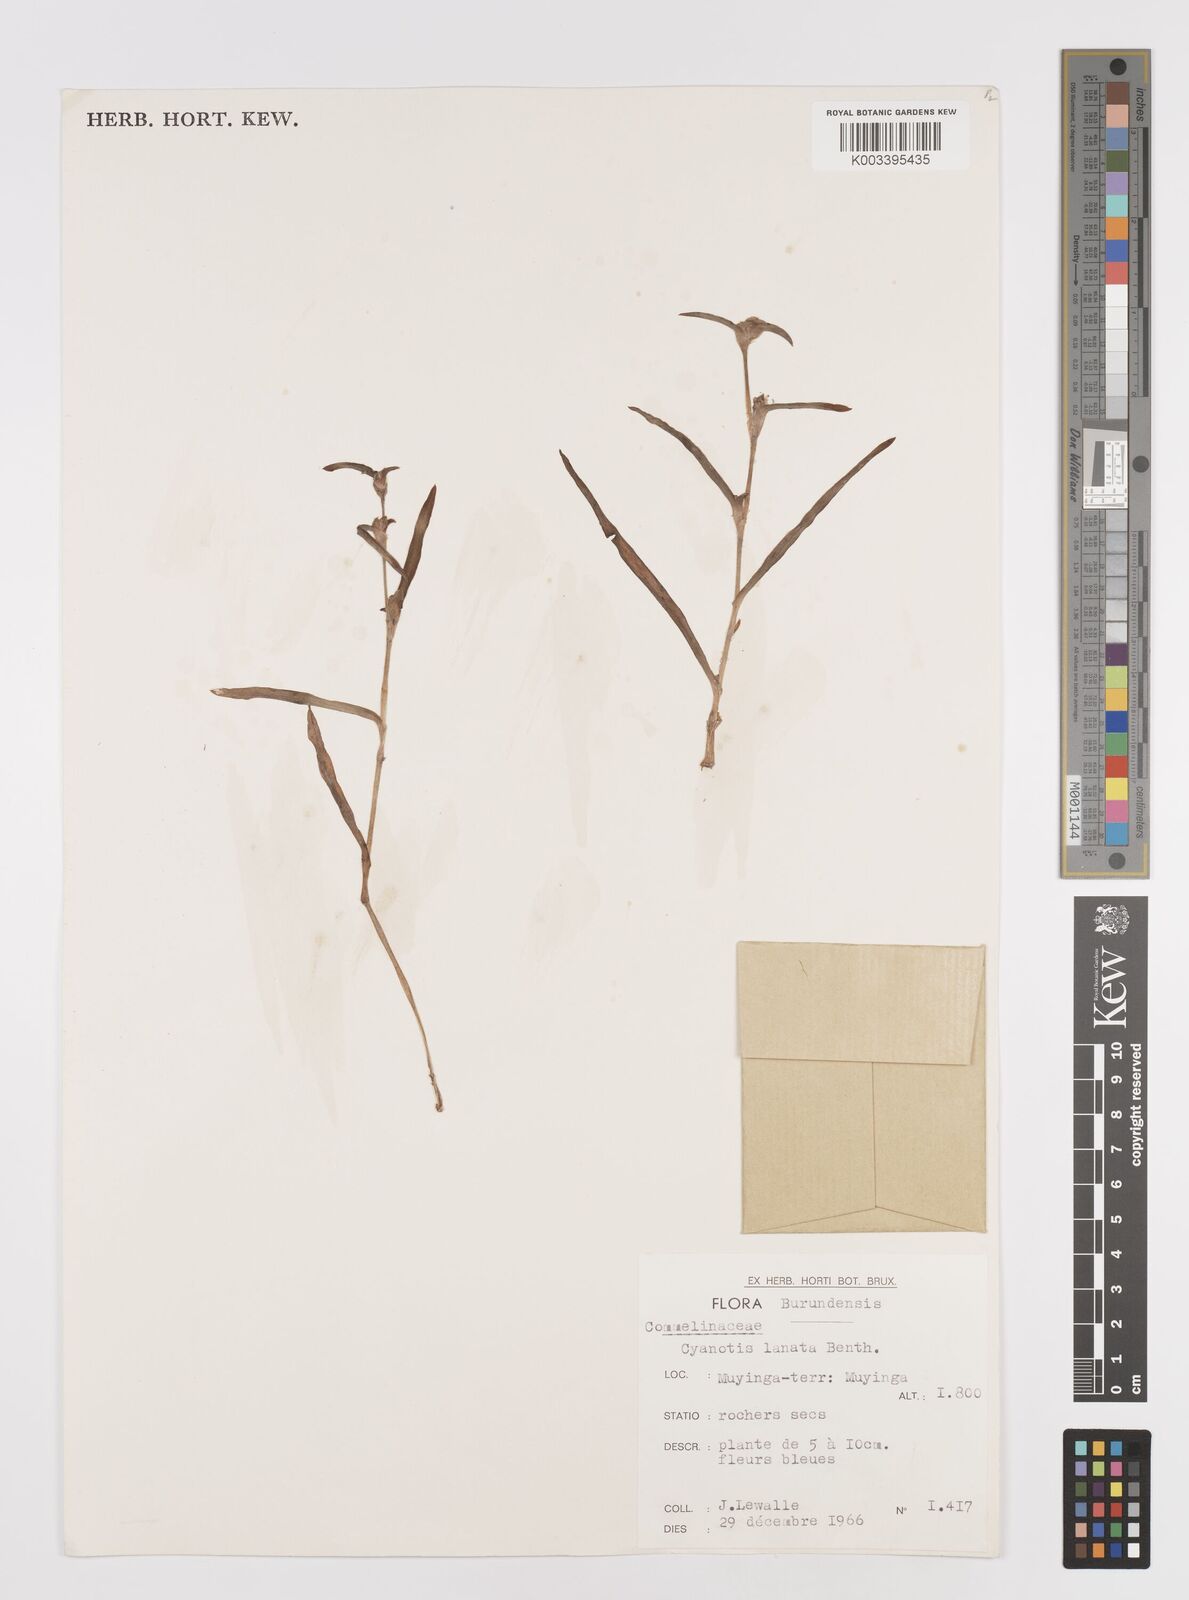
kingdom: Plantae
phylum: Tracheophyta
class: Liliopsida
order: Commelinales
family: Commelinaceae
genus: Cyanotis
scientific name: Cyanotis lanata
